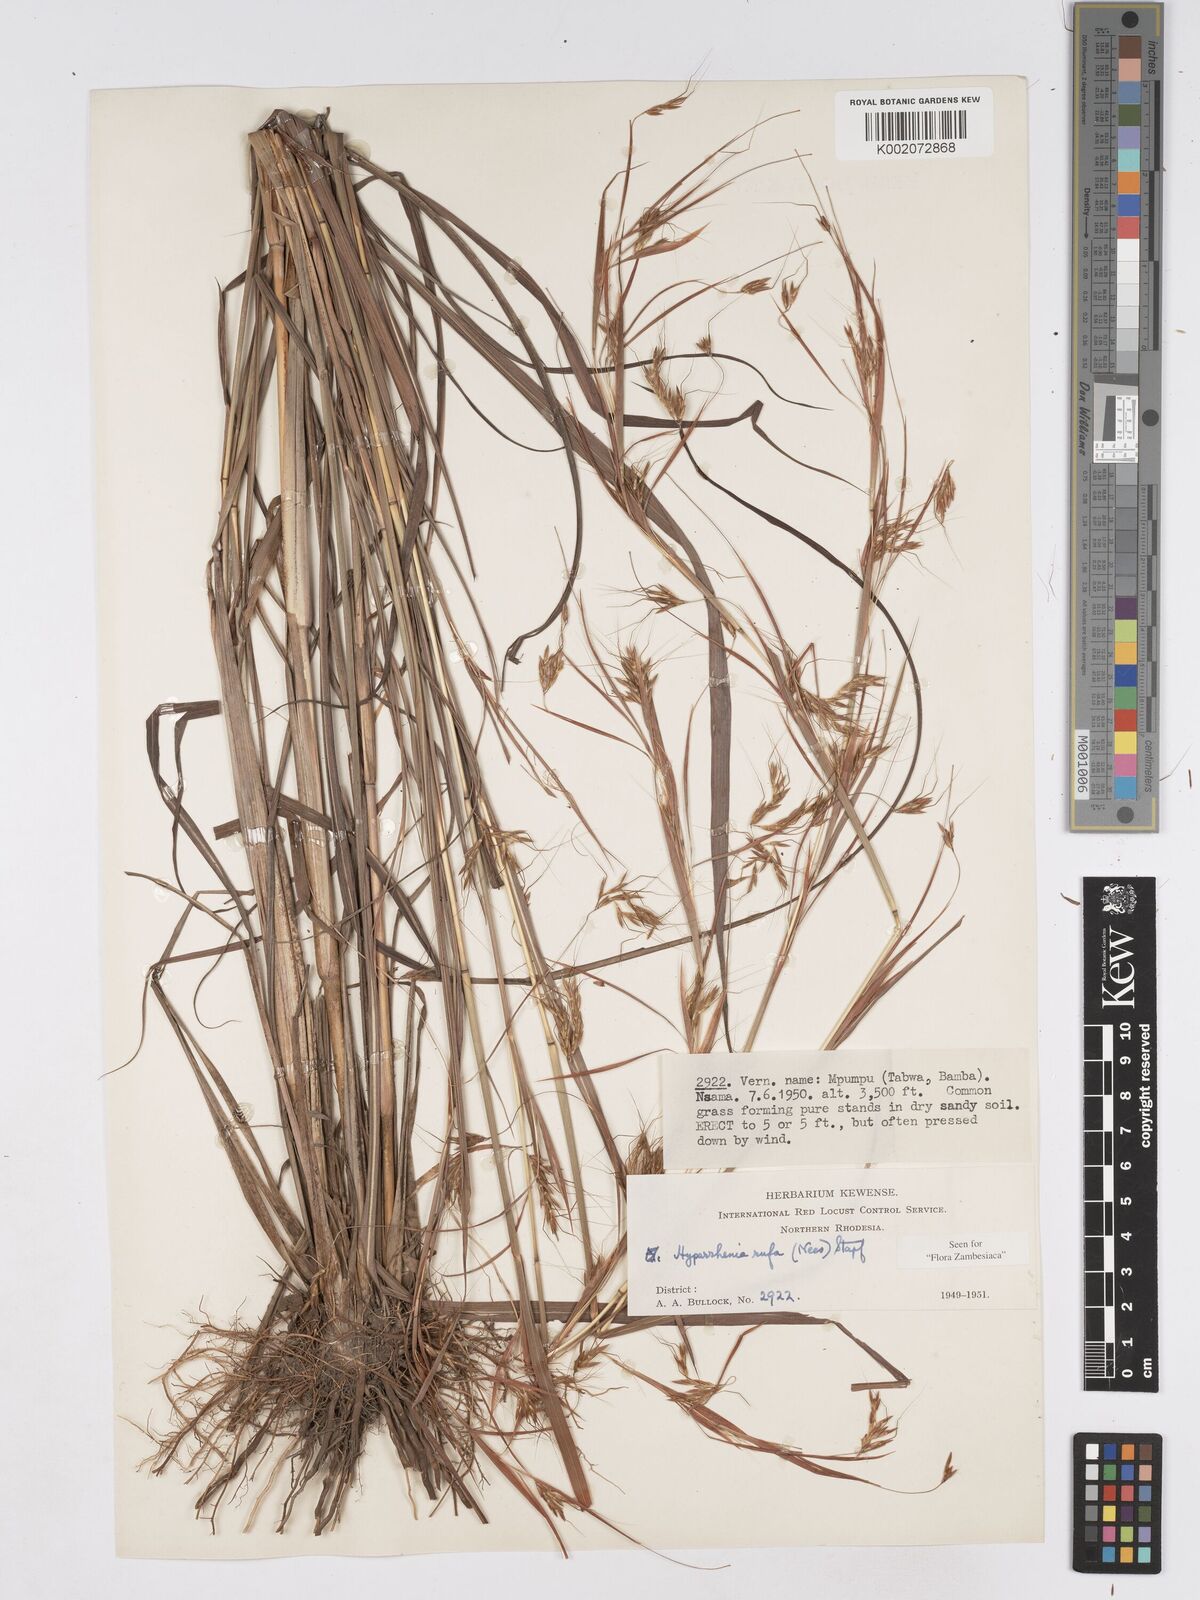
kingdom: Plantae
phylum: Tracheophyta
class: Liliopsida
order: Poales
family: Poaceae
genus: Hyparrhenia
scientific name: Hyparrhenia rufa
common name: Jaraguagrass
